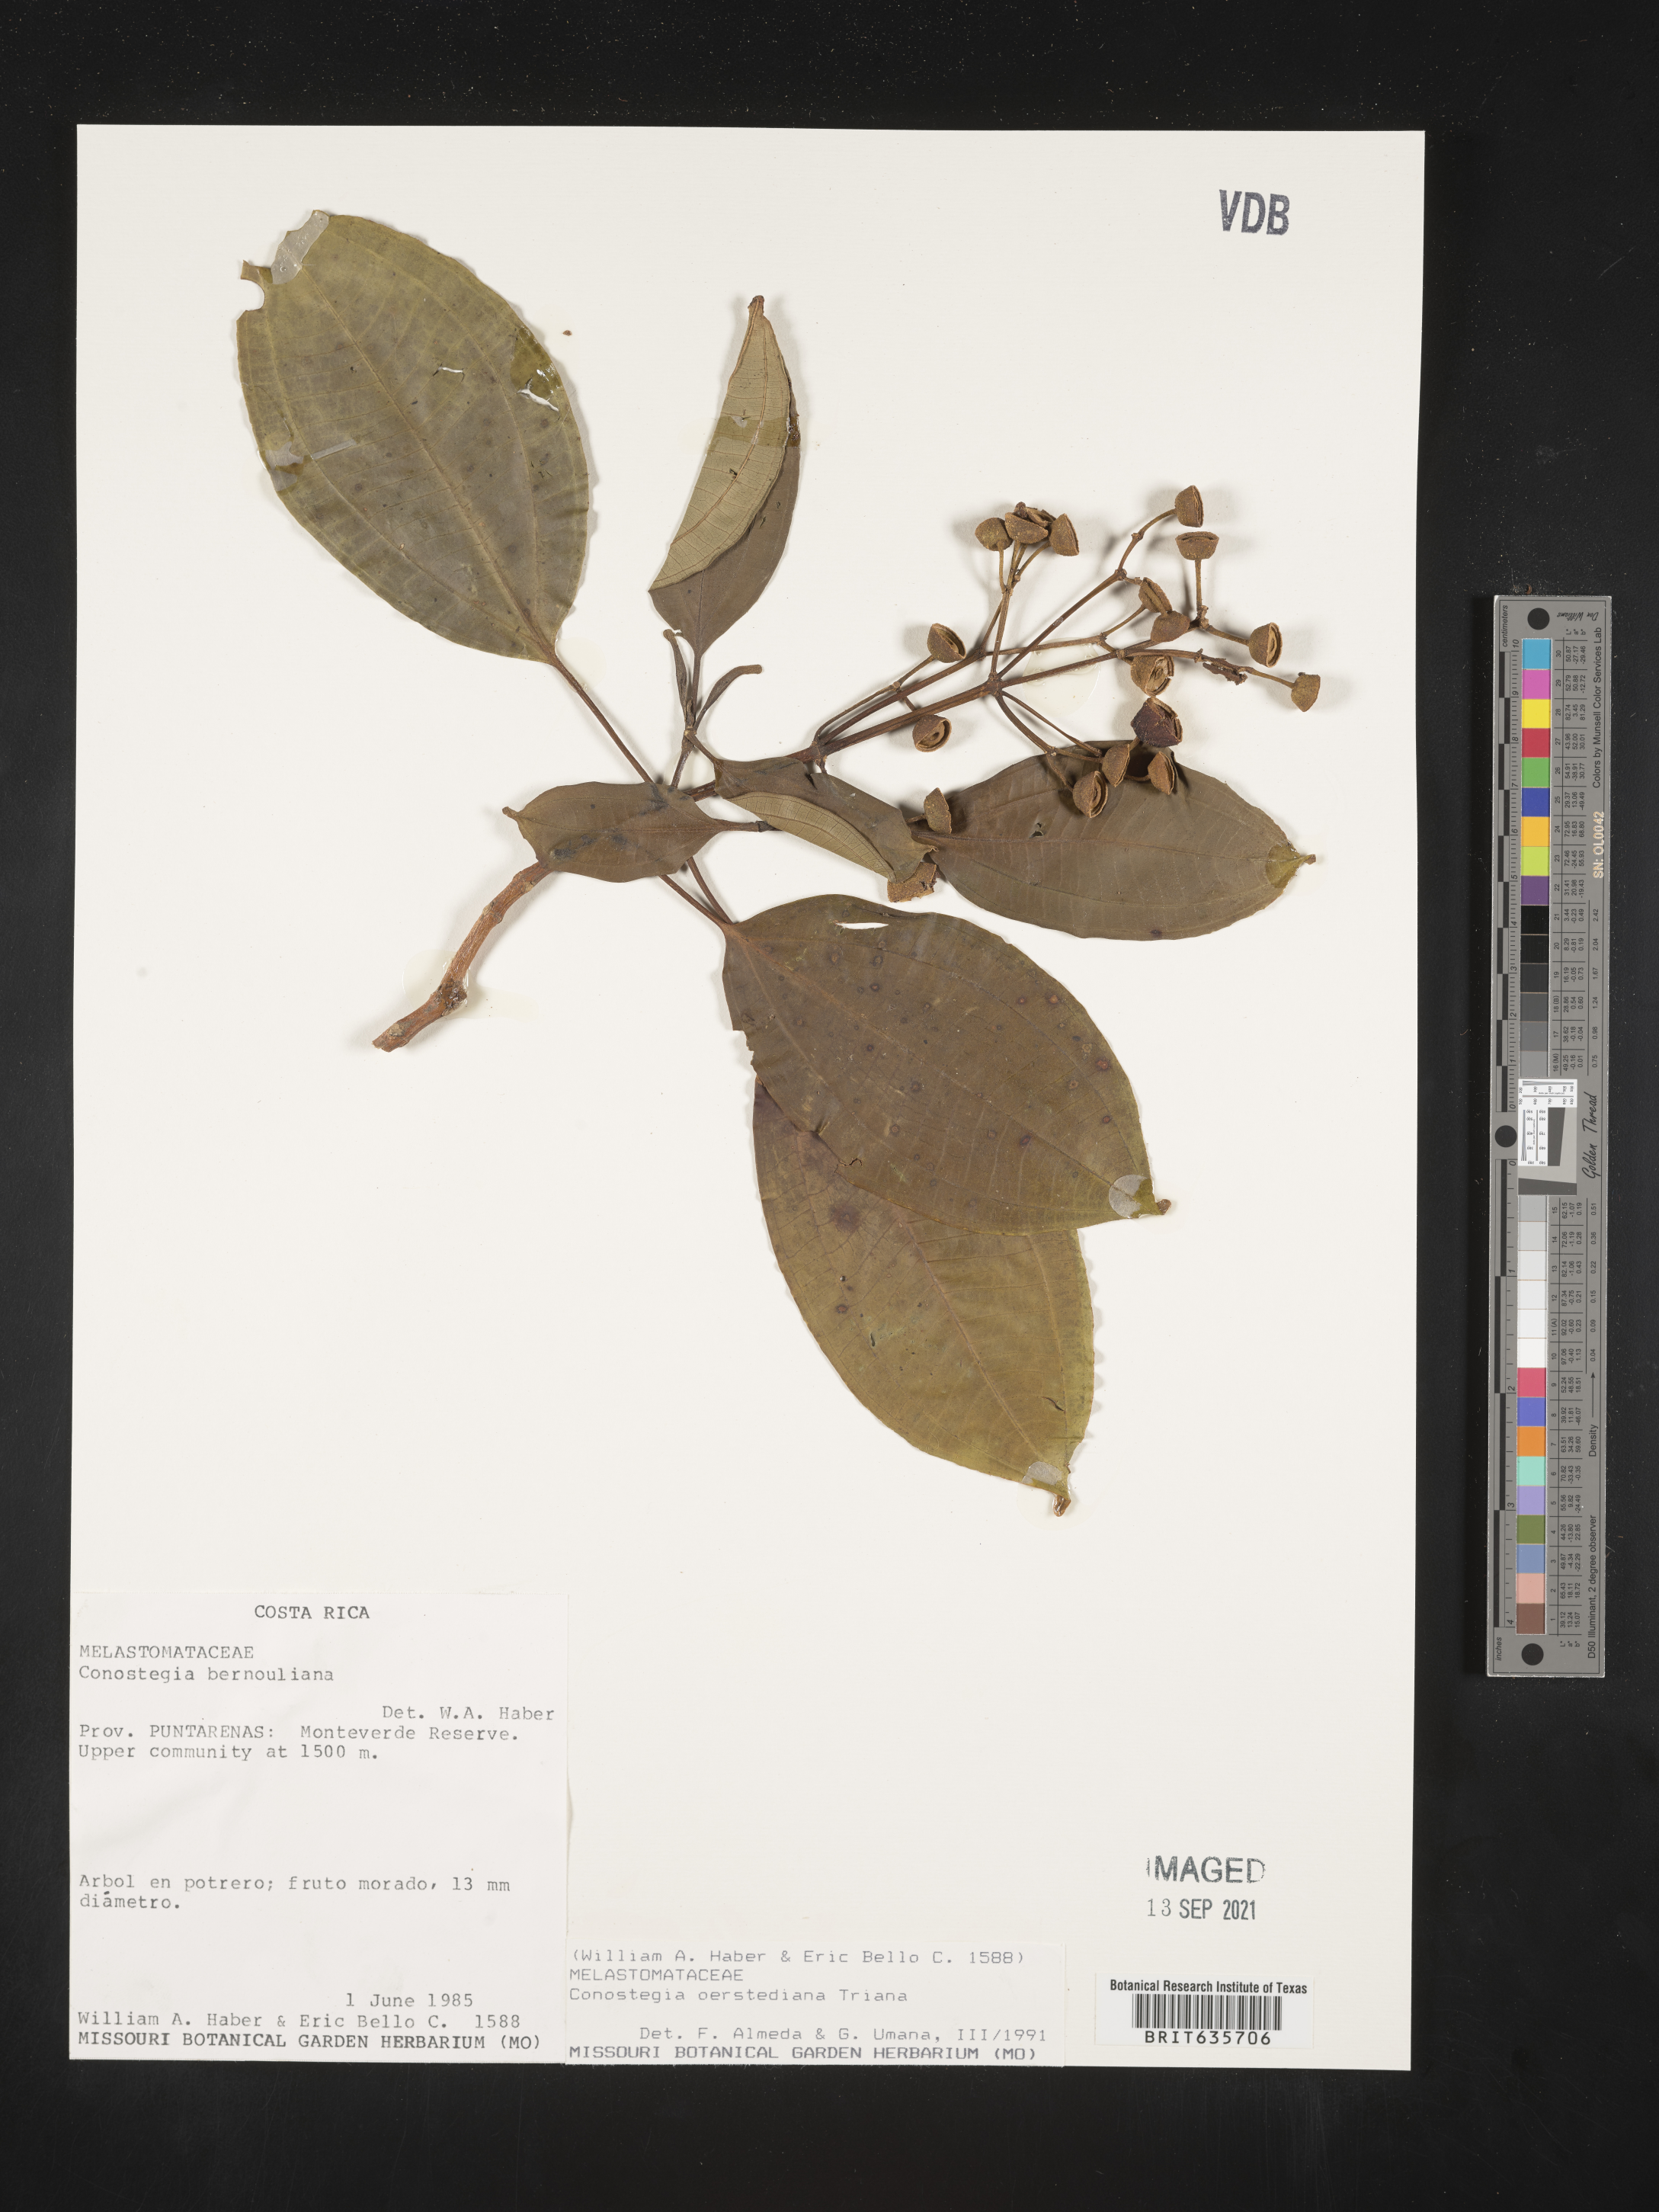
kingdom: Plantae
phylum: Tracheophyta
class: Magnoliopsida
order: Myrtales
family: Melastomataceae
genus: Miconia
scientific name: Miconia
